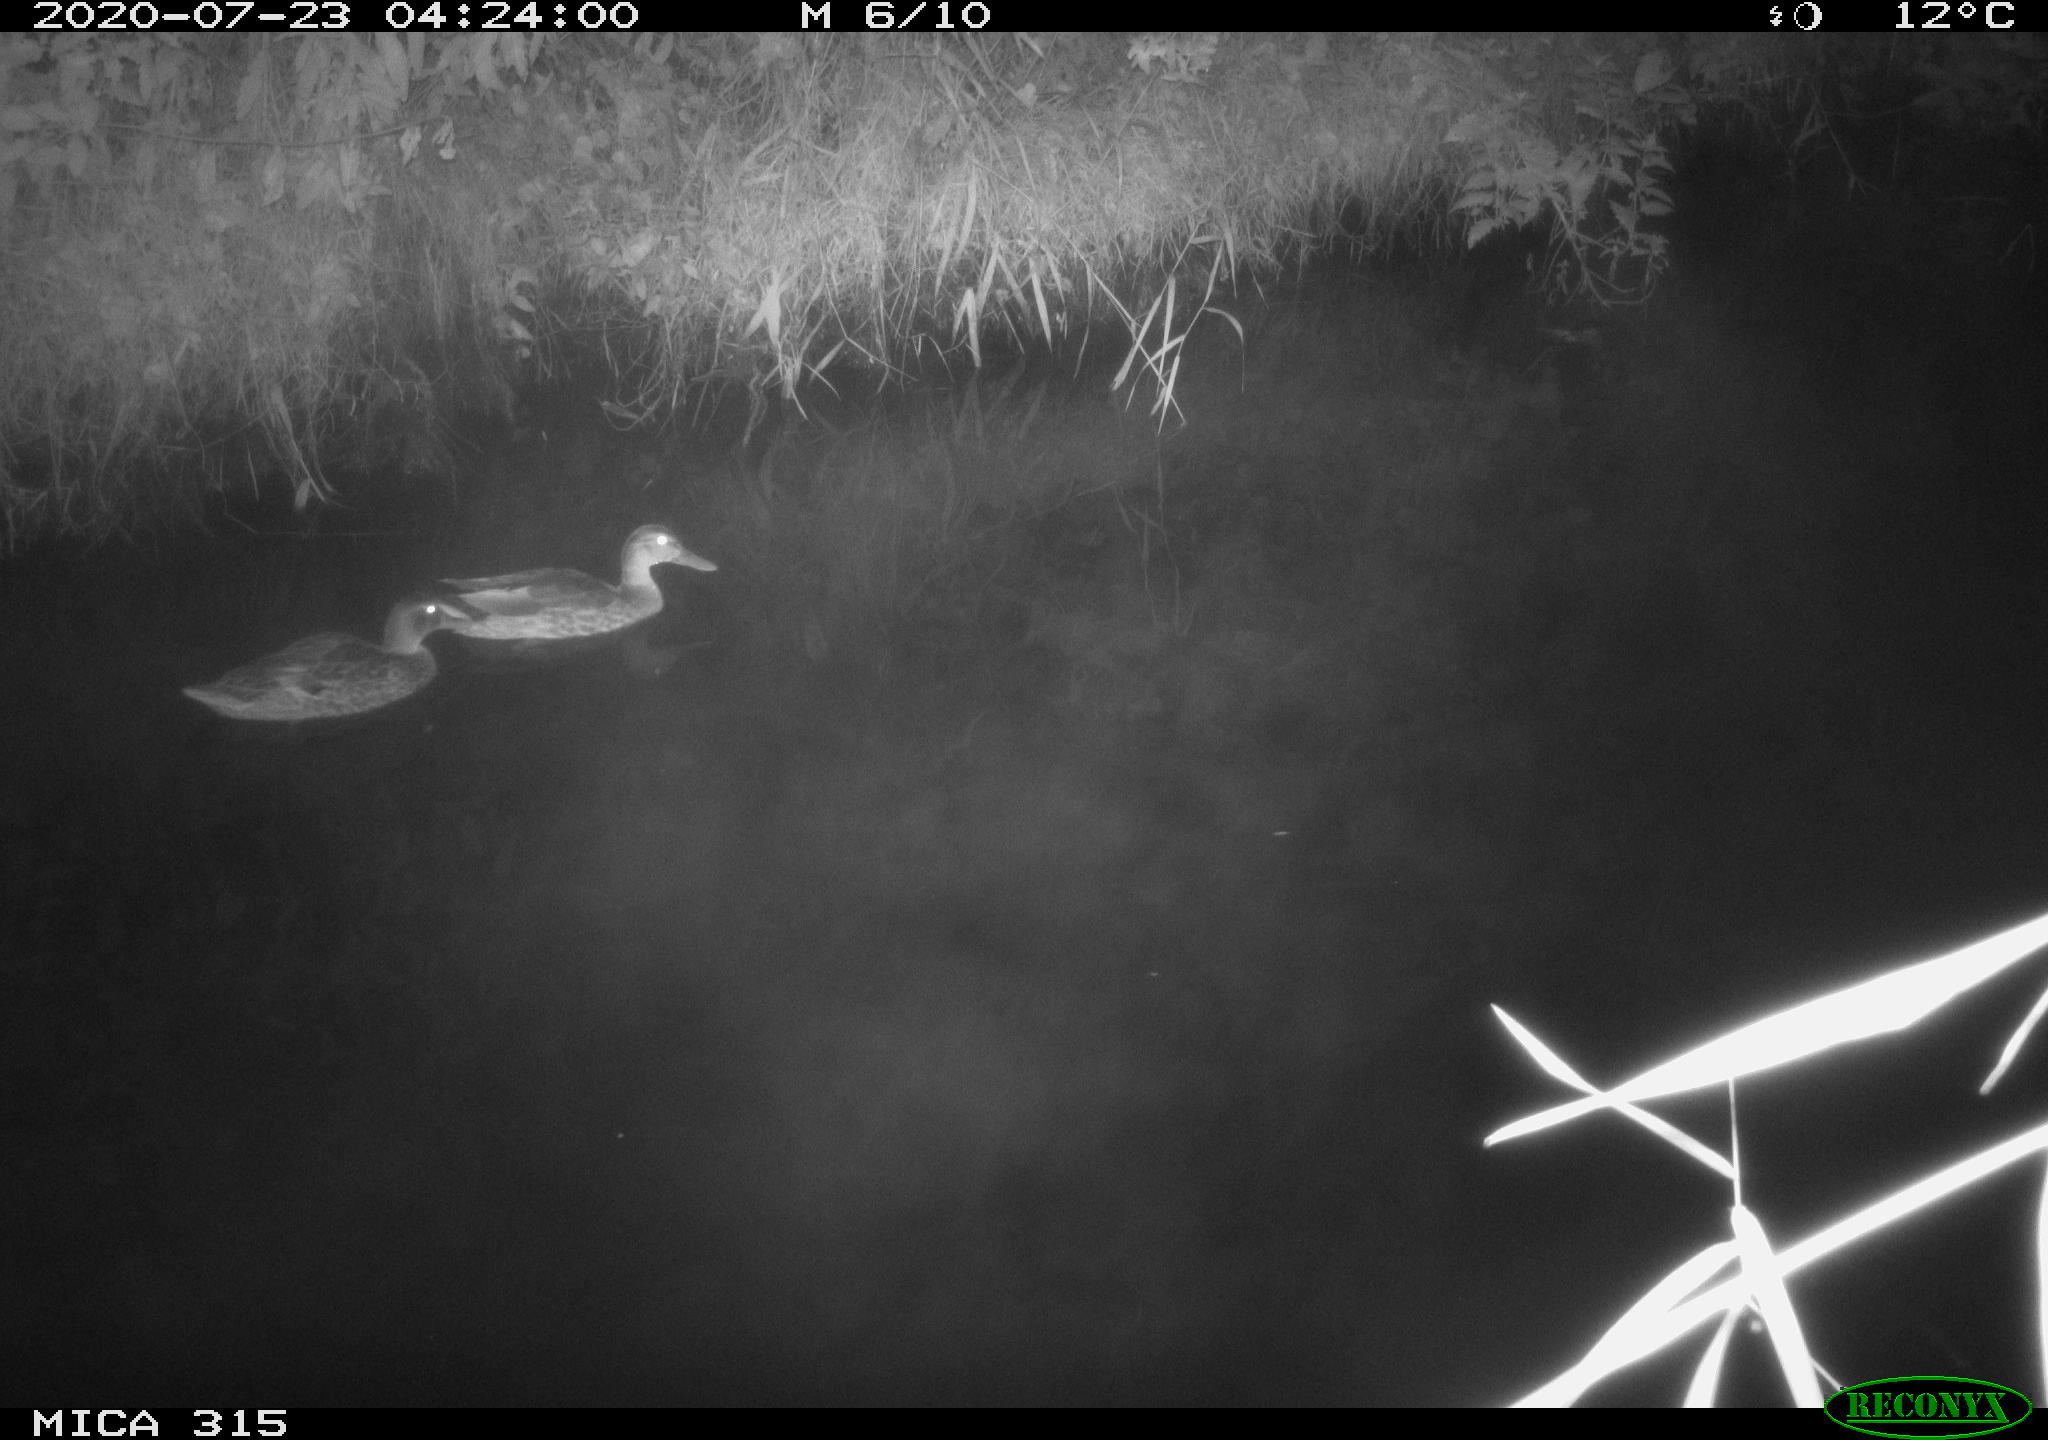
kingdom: Animalia
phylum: Chordata
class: Aves
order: Anseriformes
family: Anatidae
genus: Anas
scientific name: Anas platyrhynchos
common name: Mallard
